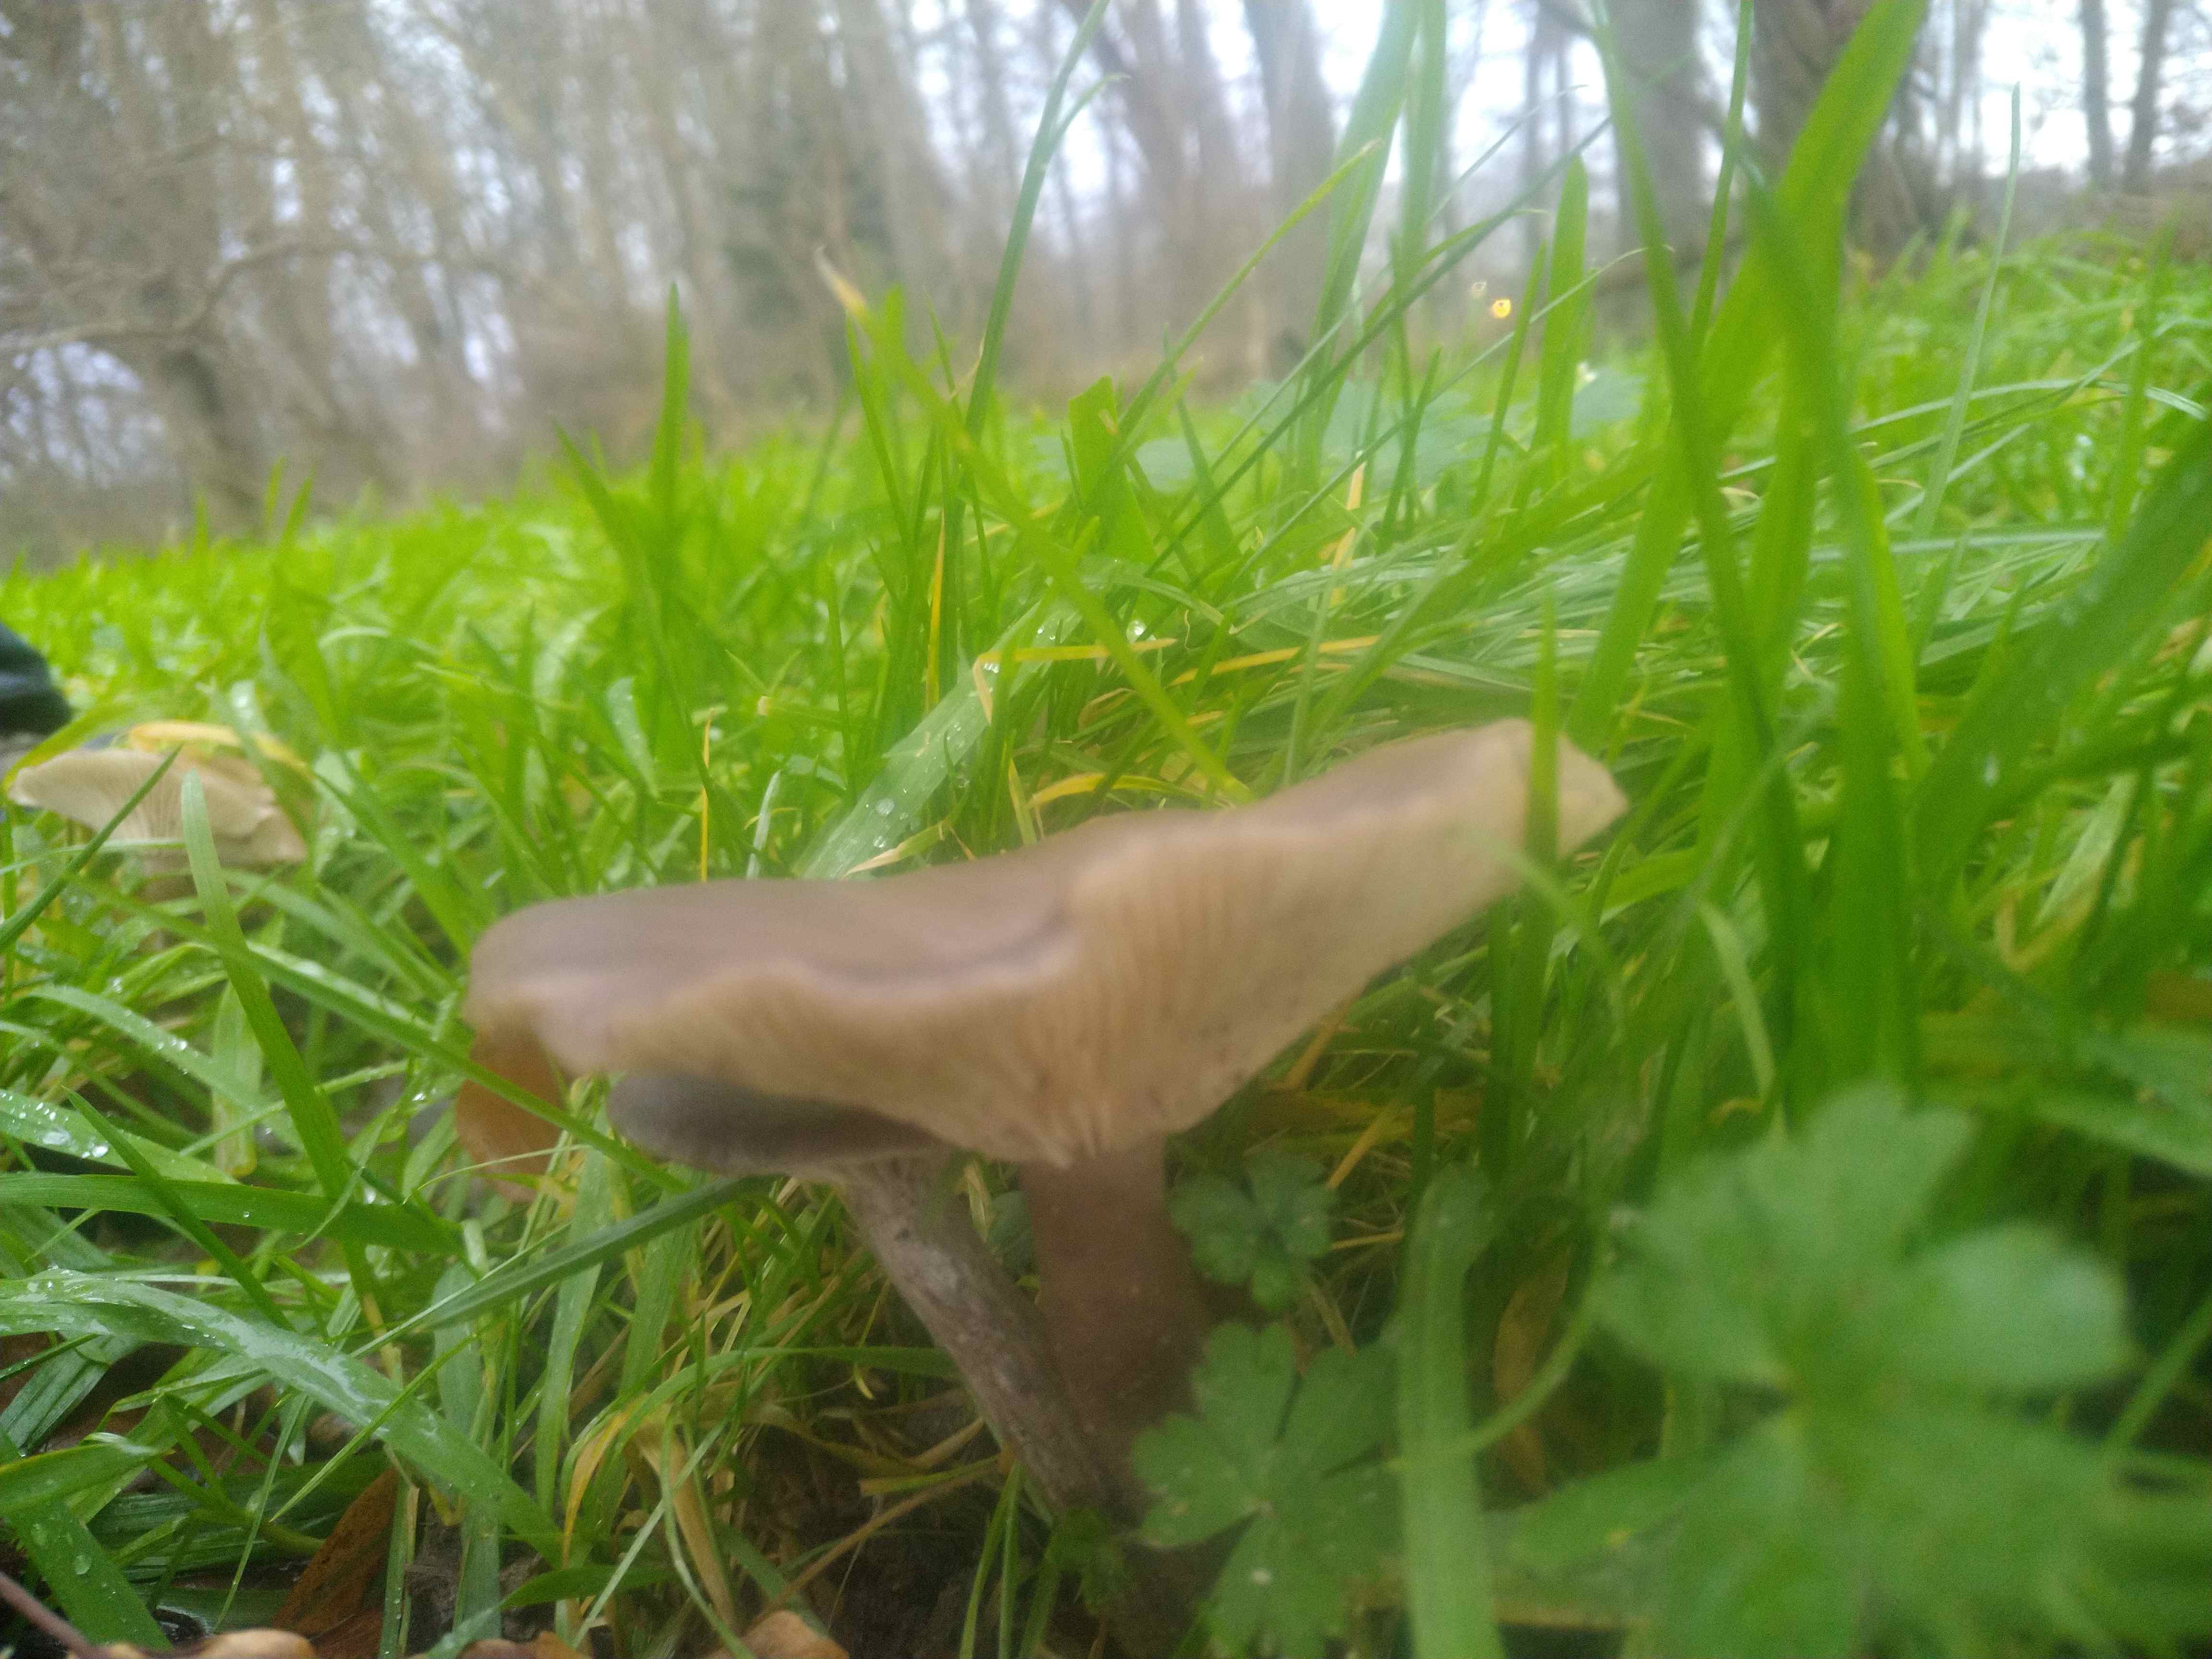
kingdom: Fungi
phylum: Basidiomycota
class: Agaricomycetes
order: Agaricales
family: Pseudoclitocybaceae
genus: Pseudoclitocybe
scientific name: Pseudoclitocybe expallens
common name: lille bægertragthat
